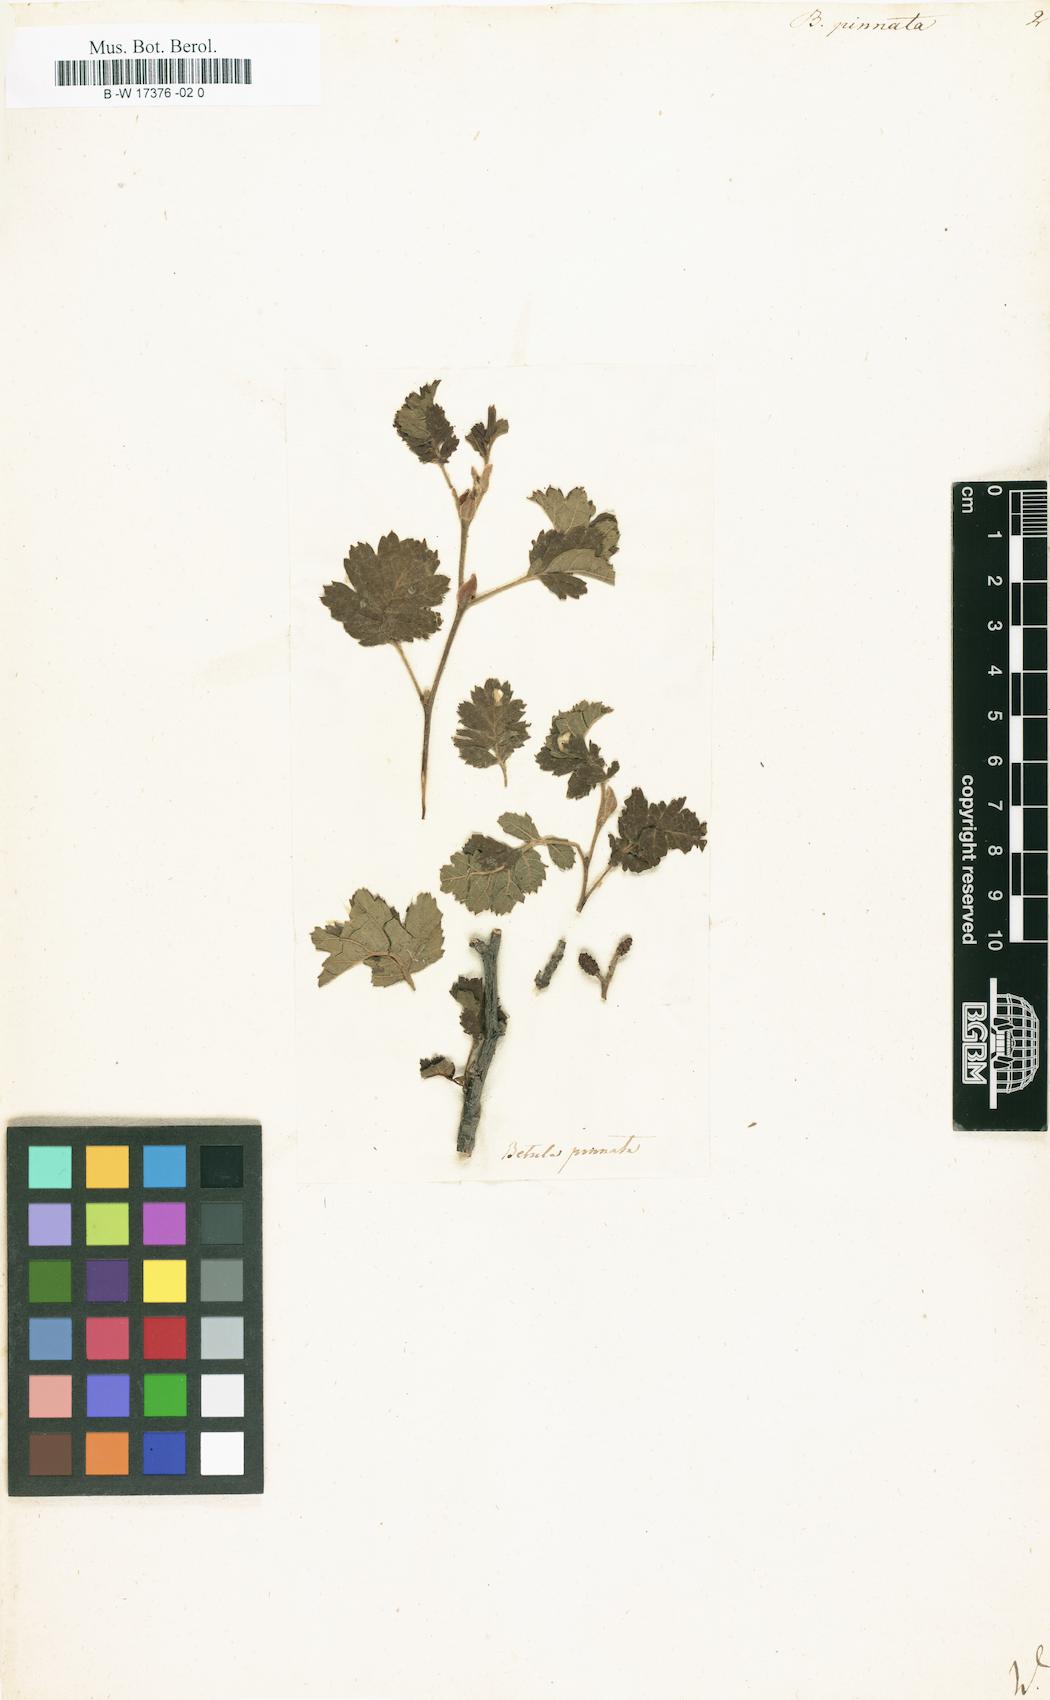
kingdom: Plantae
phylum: Tracheophyta
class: Magnoliopsida
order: Fagales
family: Betulaceae
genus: Alnus
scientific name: Alnus
